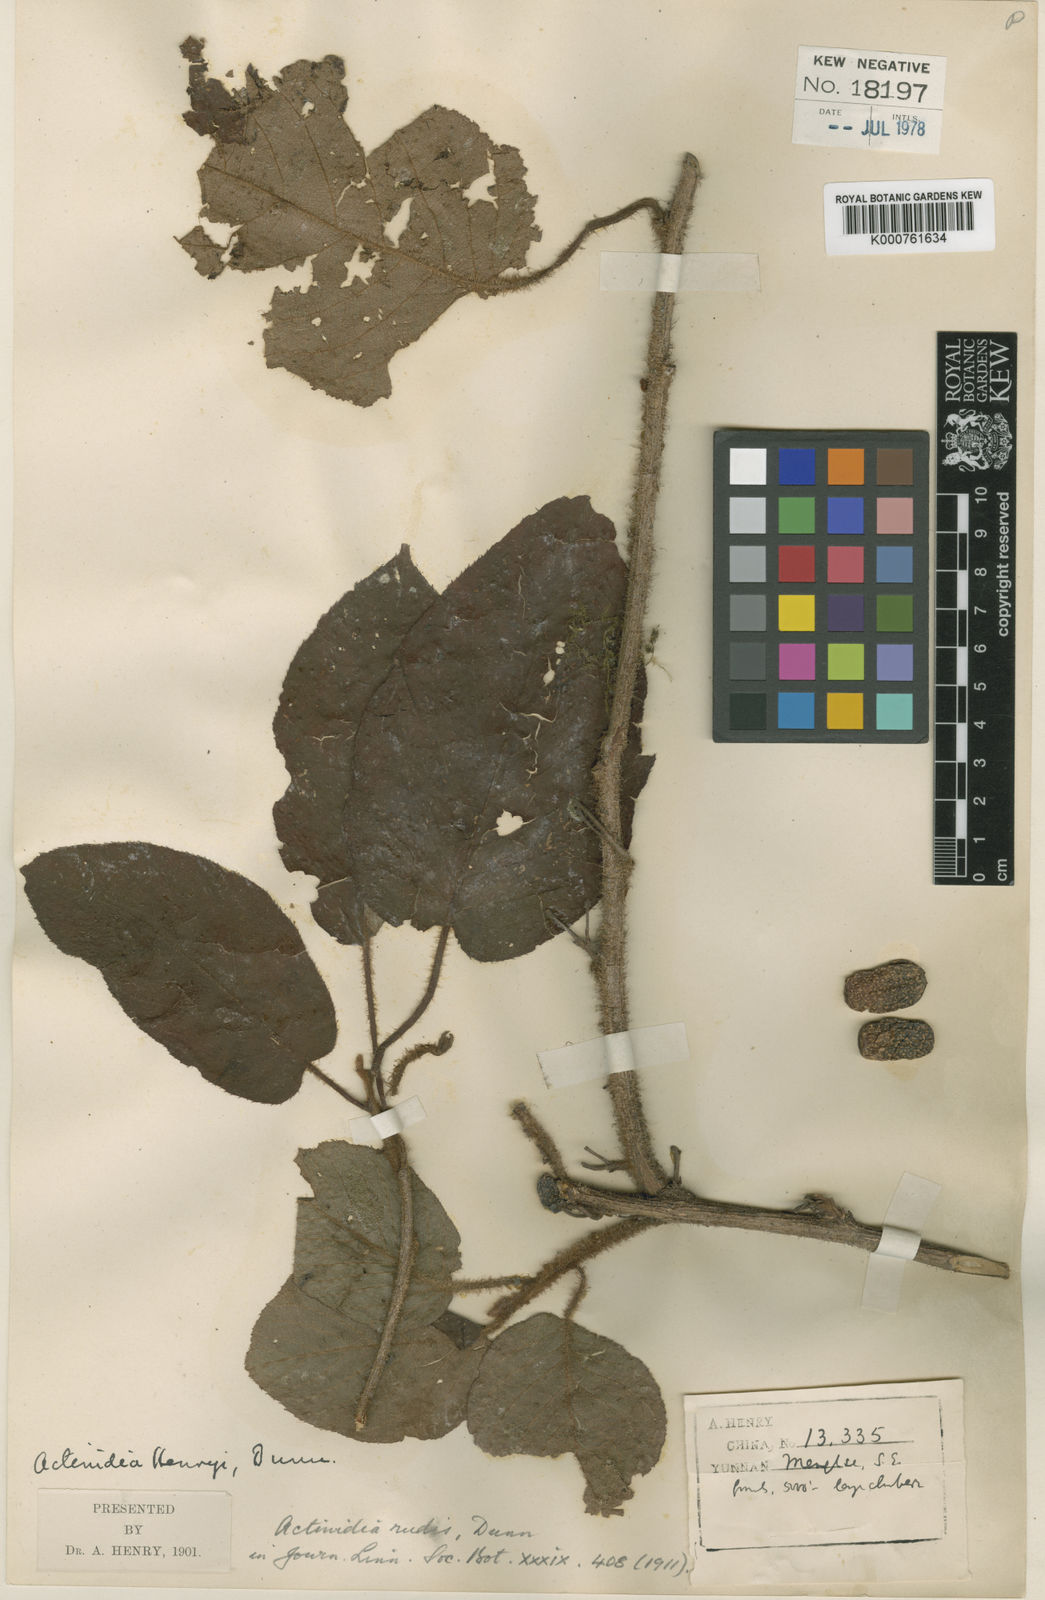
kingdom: Plantae
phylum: Tracheophyta
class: Magnoliopsida
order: Ericales
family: Actinidiaceae
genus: Actinidia
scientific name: Actinidia rudis
